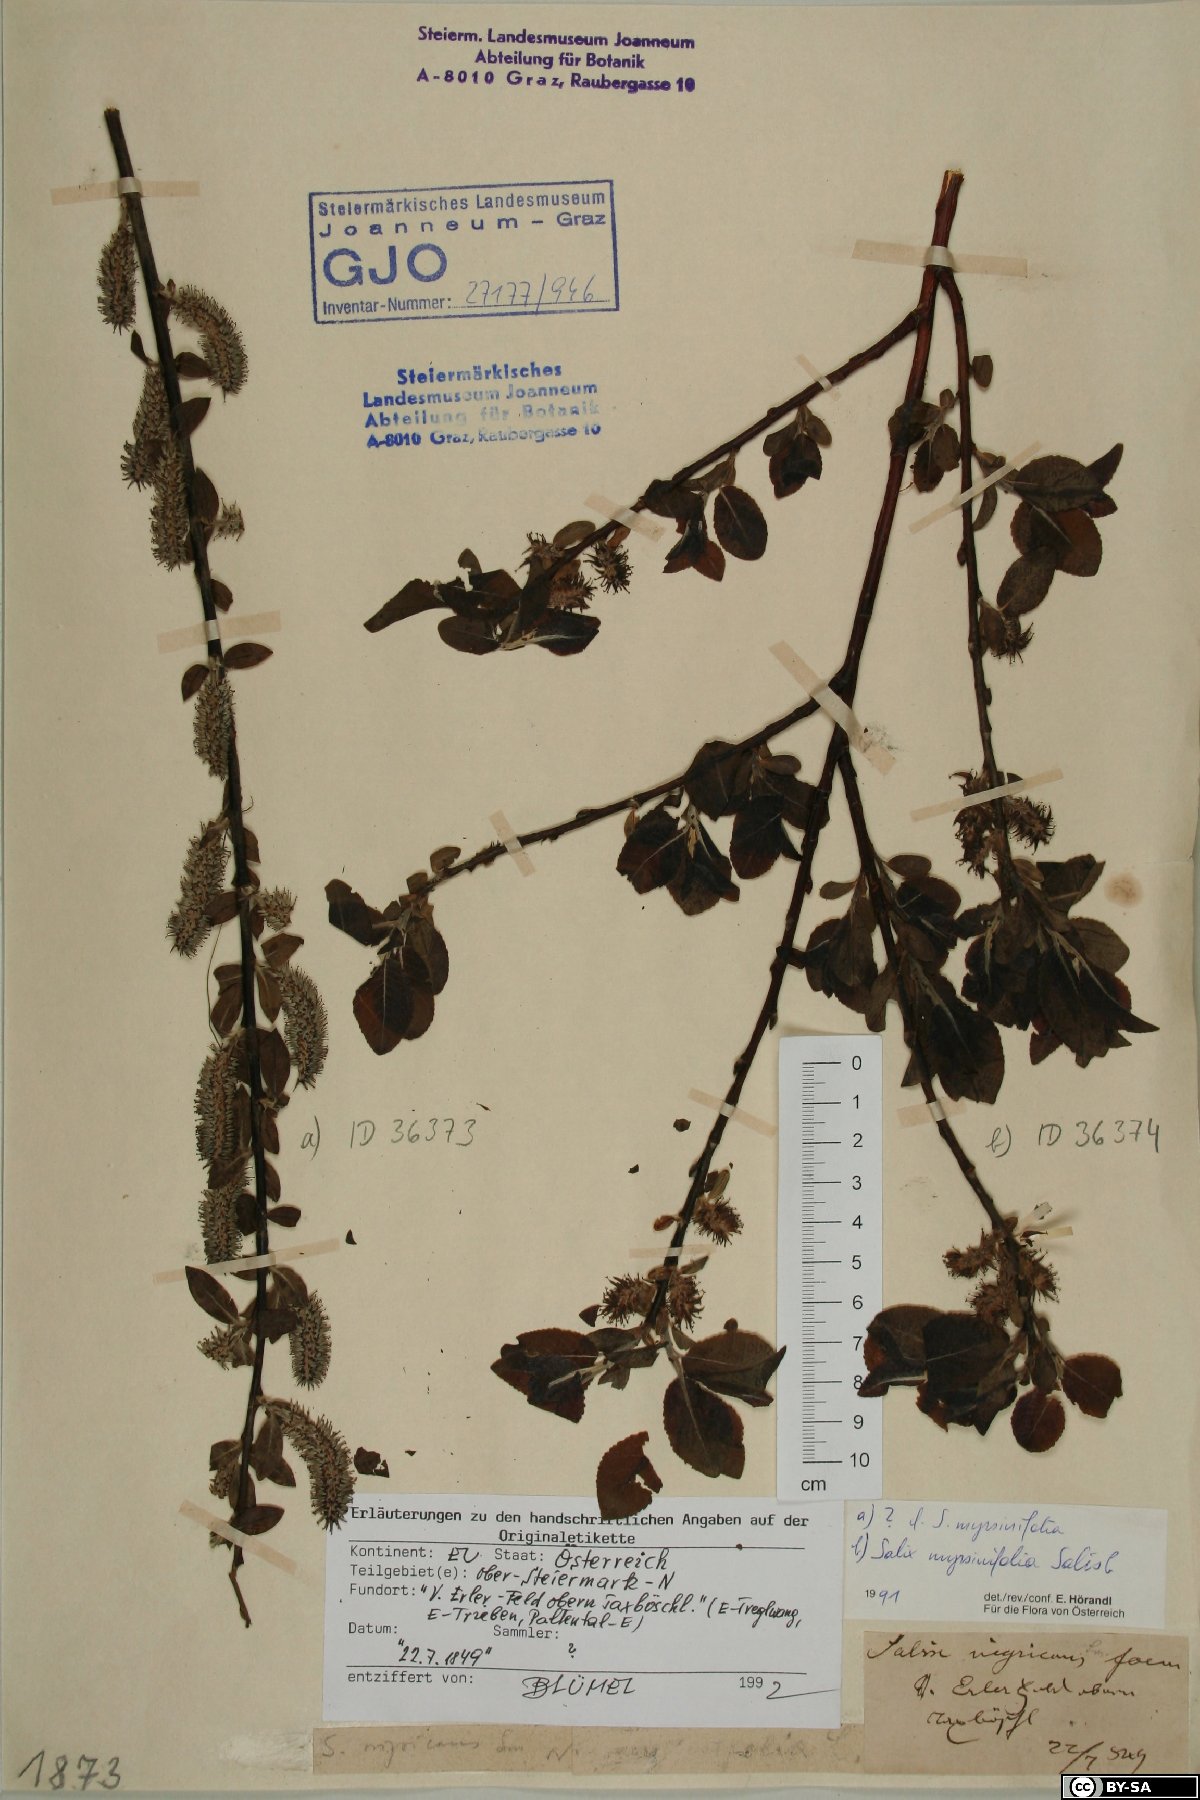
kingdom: Plantae
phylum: Tracheophyta
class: Magnoliopsida
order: Malpighiales
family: Salicaceae
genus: Salix
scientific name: Salix myrsinifolia
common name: Dark-leaved willow
